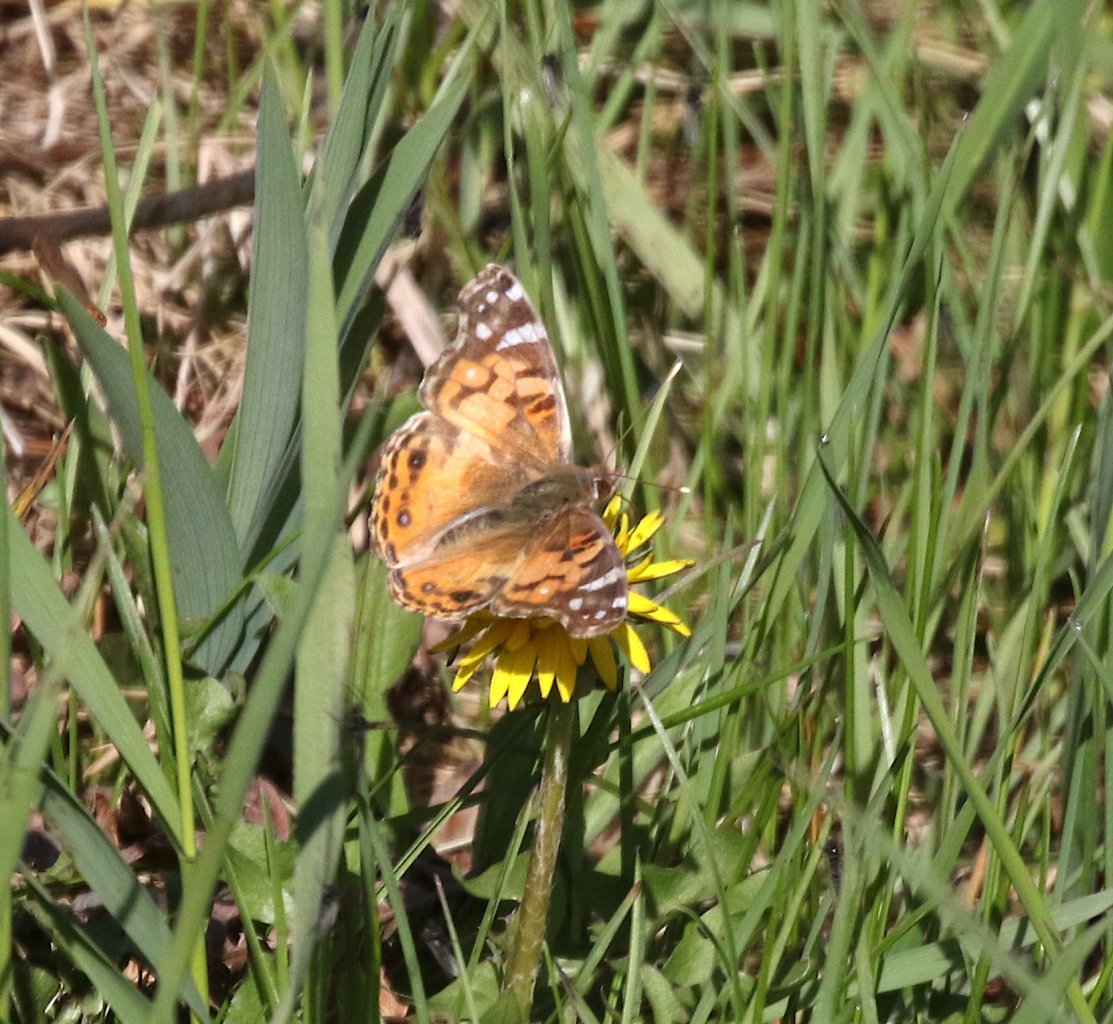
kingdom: Animalia
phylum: Arthropoda
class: Insecta
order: Lepidoptera
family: Nymphalidae
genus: Vanessa
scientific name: Vanessa virginiensis
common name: American Lady
